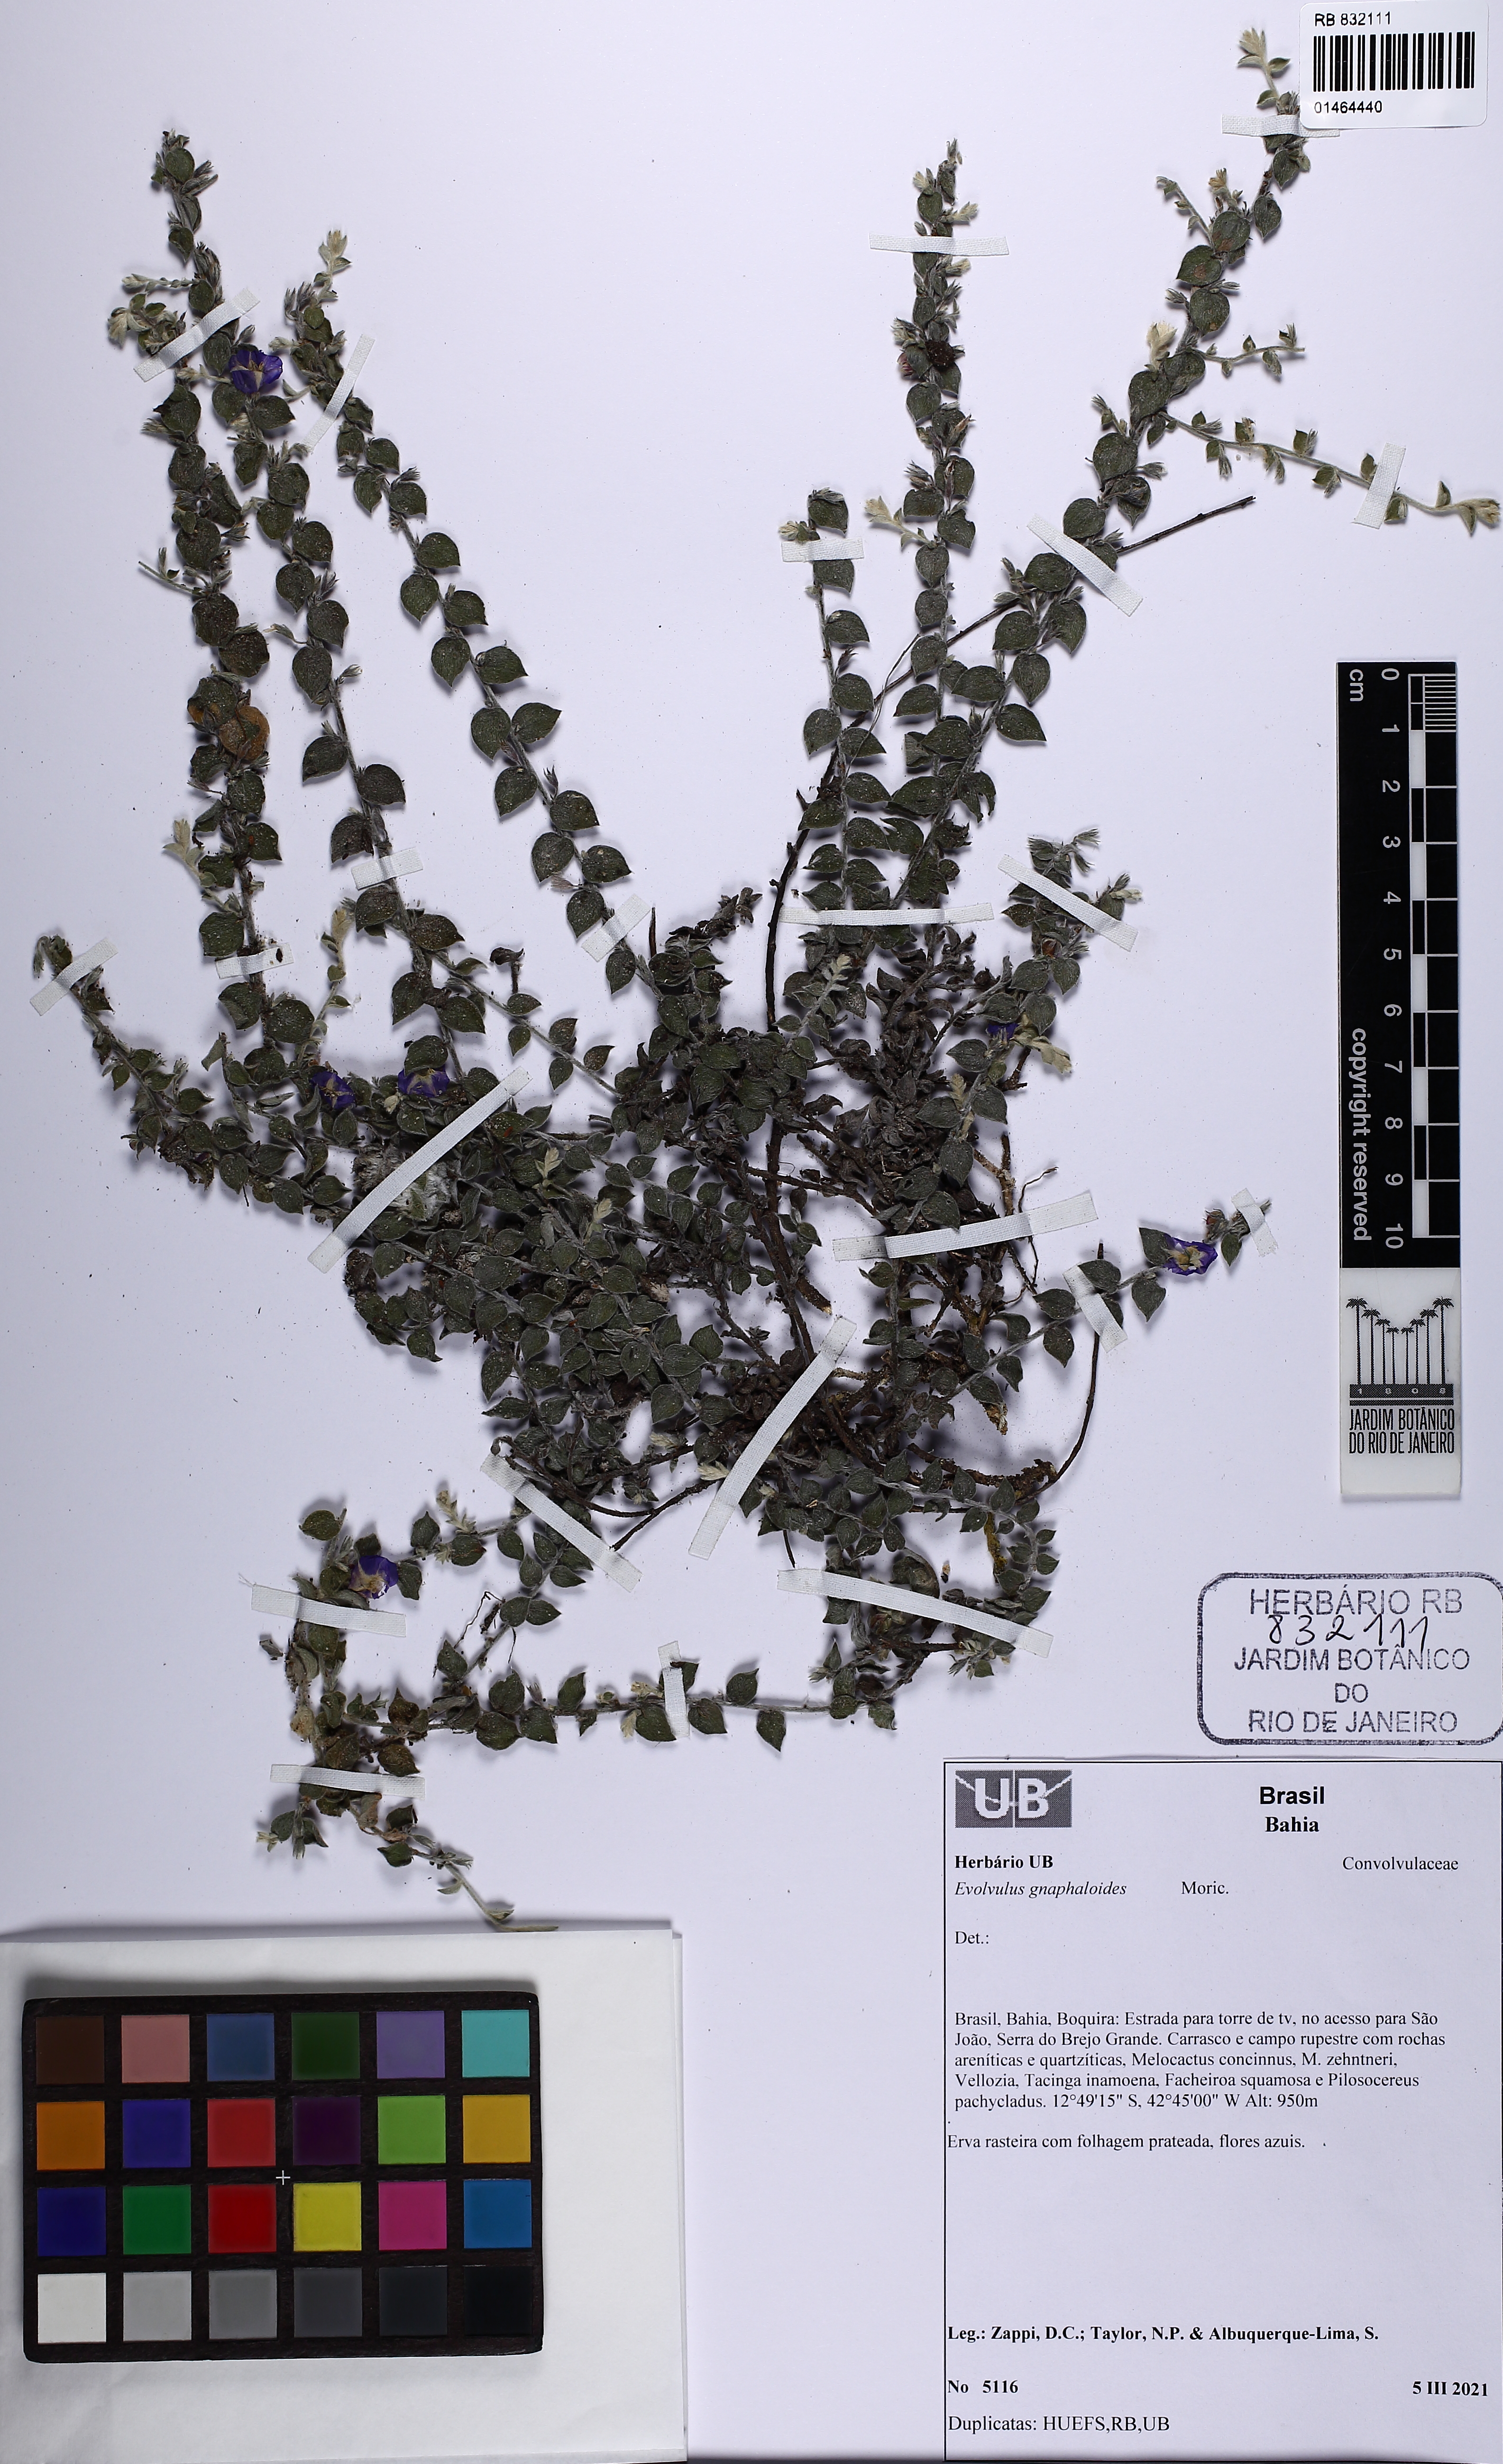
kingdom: Plantae
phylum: Tracheophyta
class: Magnoliopsida
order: Solanales
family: Convolvulaceae
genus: Evolvulus
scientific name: Evolvulus gnaphalioides
